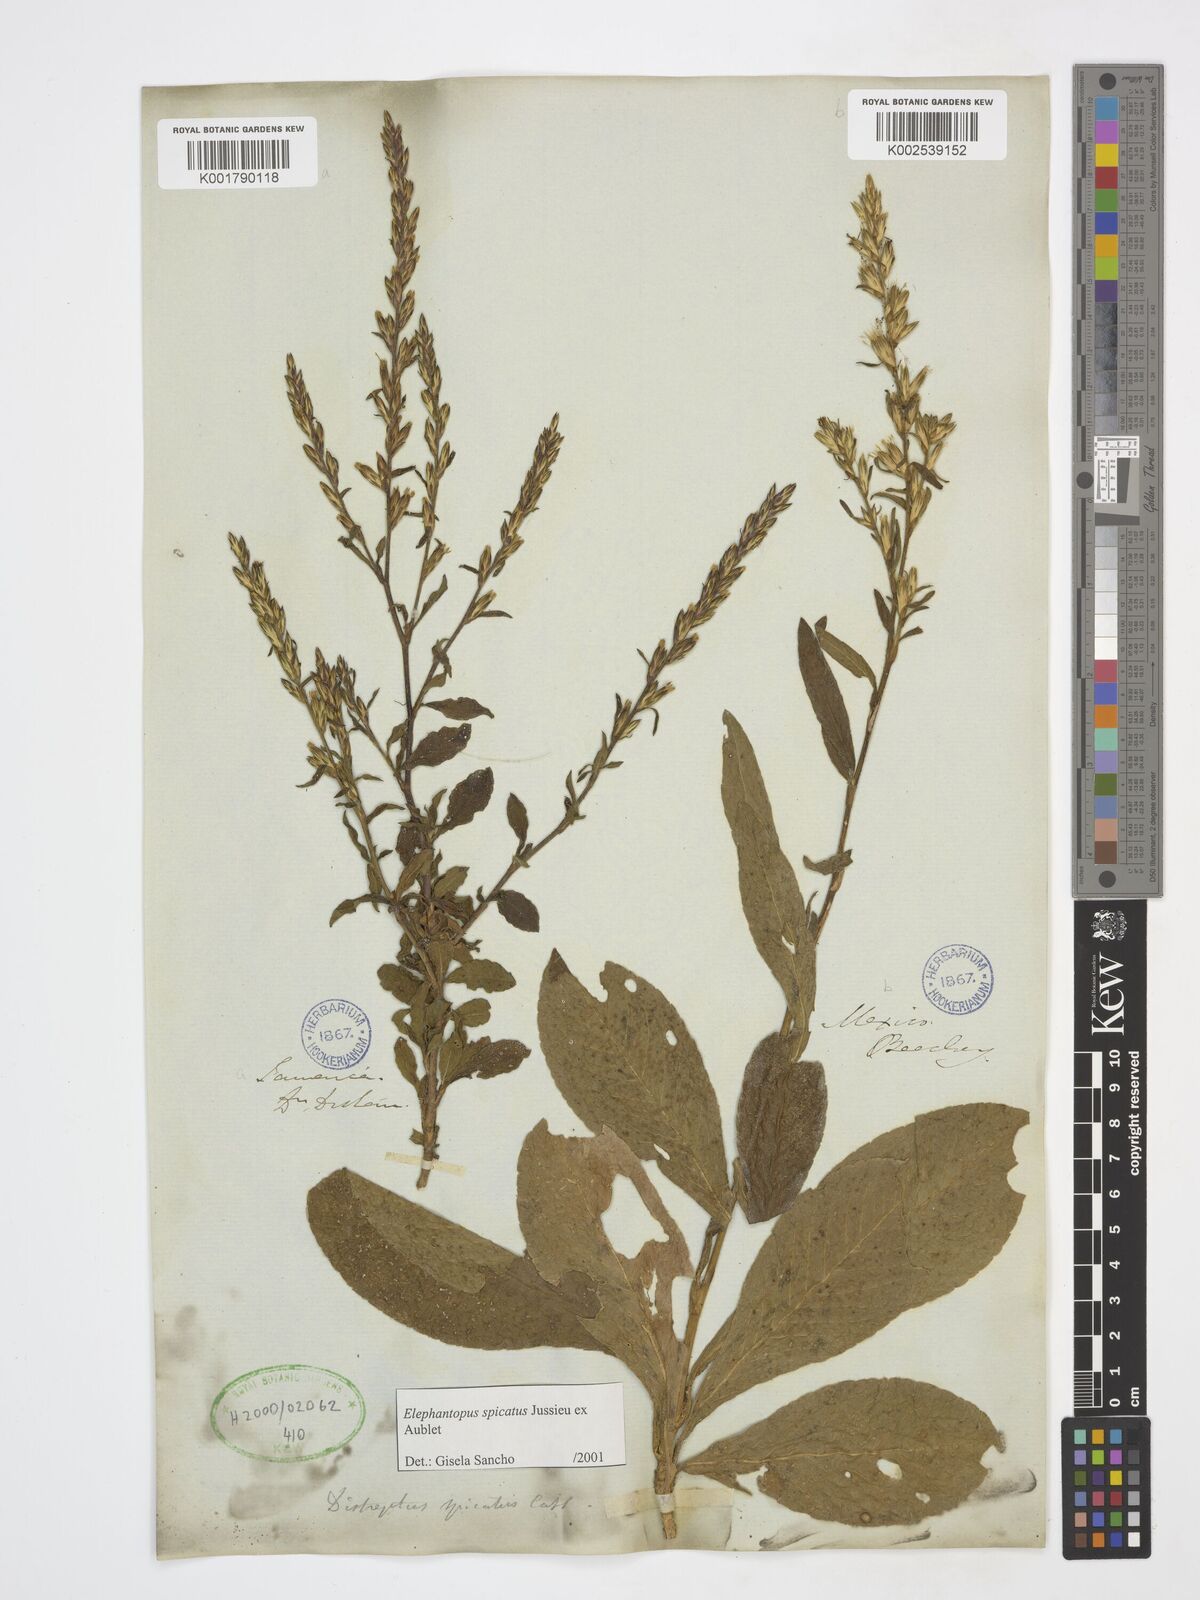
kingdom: Plantae
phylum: Tracheophyta
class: Magnoliopsida
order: Asterales
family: Asteraceae
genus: Pseudelephantopus
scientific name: Pseudelephantopus spicatus
